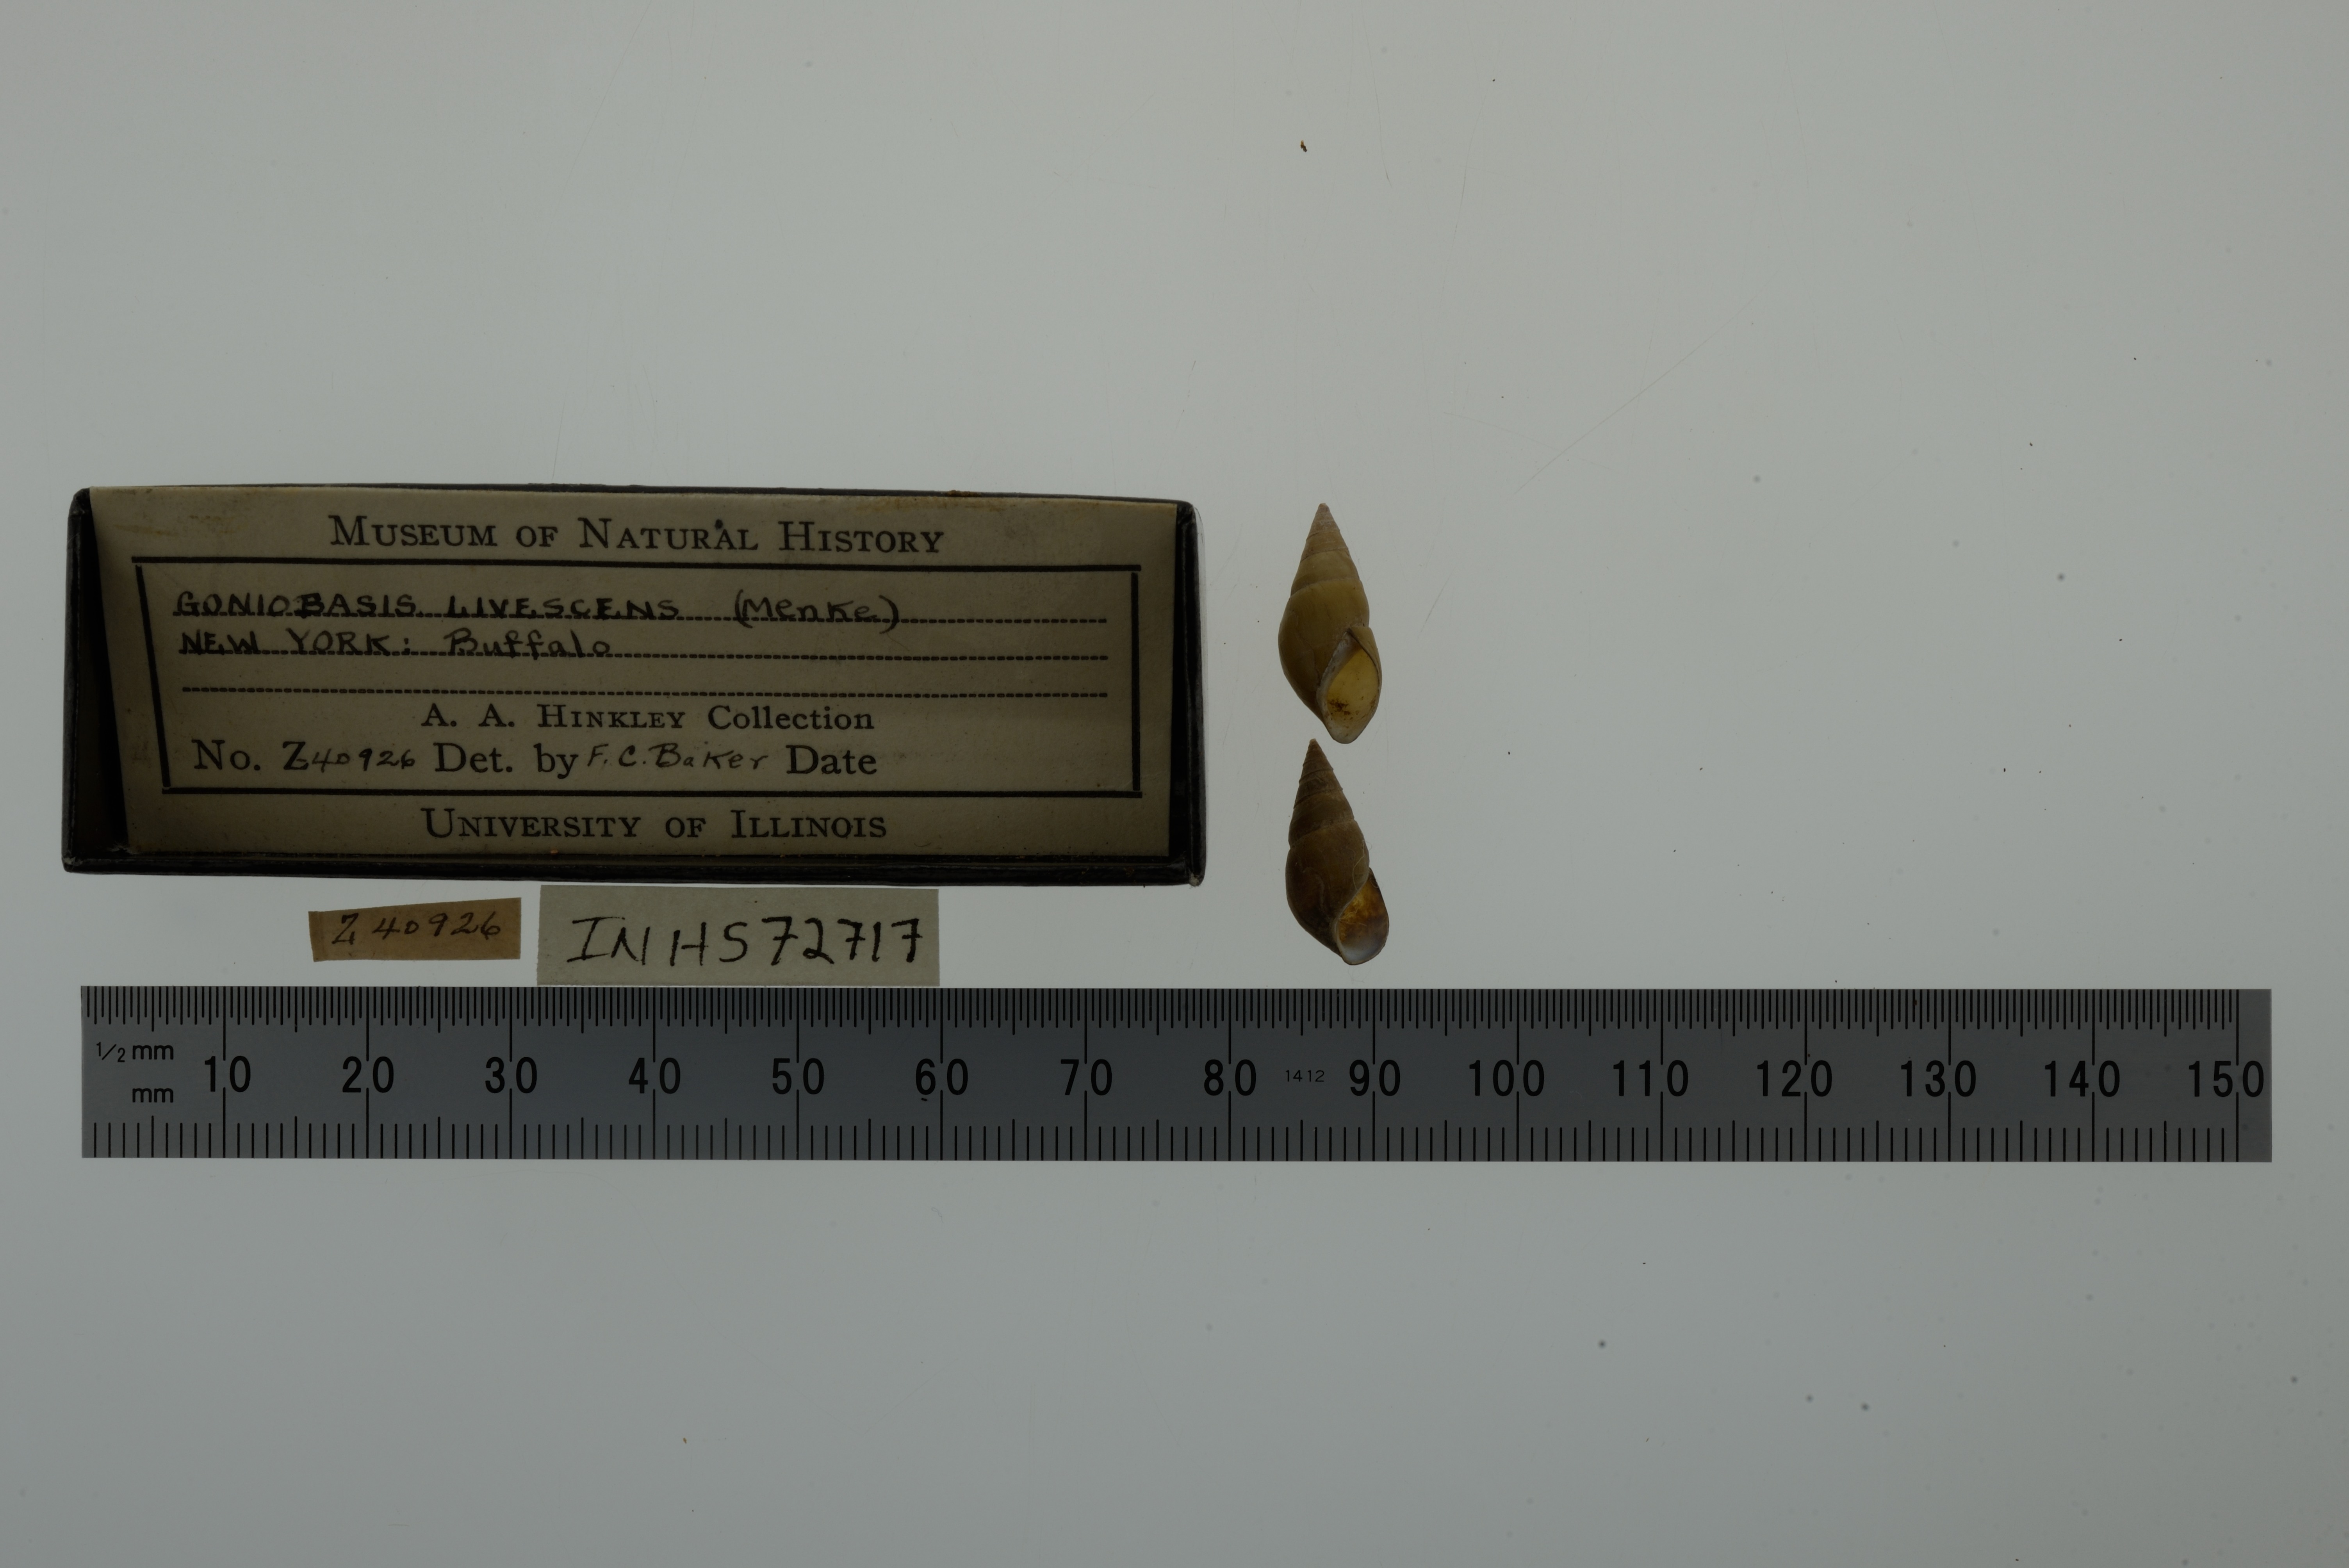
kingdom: Animalia
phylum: Mollusca
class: Gastropoda
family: Pleuroceridae
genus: Elimia
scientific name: Elimia livescens
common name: Liver elimia
